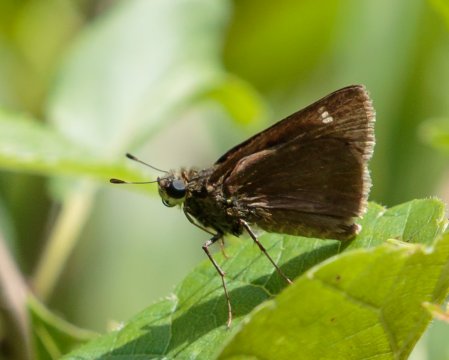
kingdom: Animalia
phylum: Arthropoda
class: Insecta
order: Lepidoptera
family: Hesperiidae
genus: Vernia
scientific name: Vernia verna
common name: Little Glassywing
